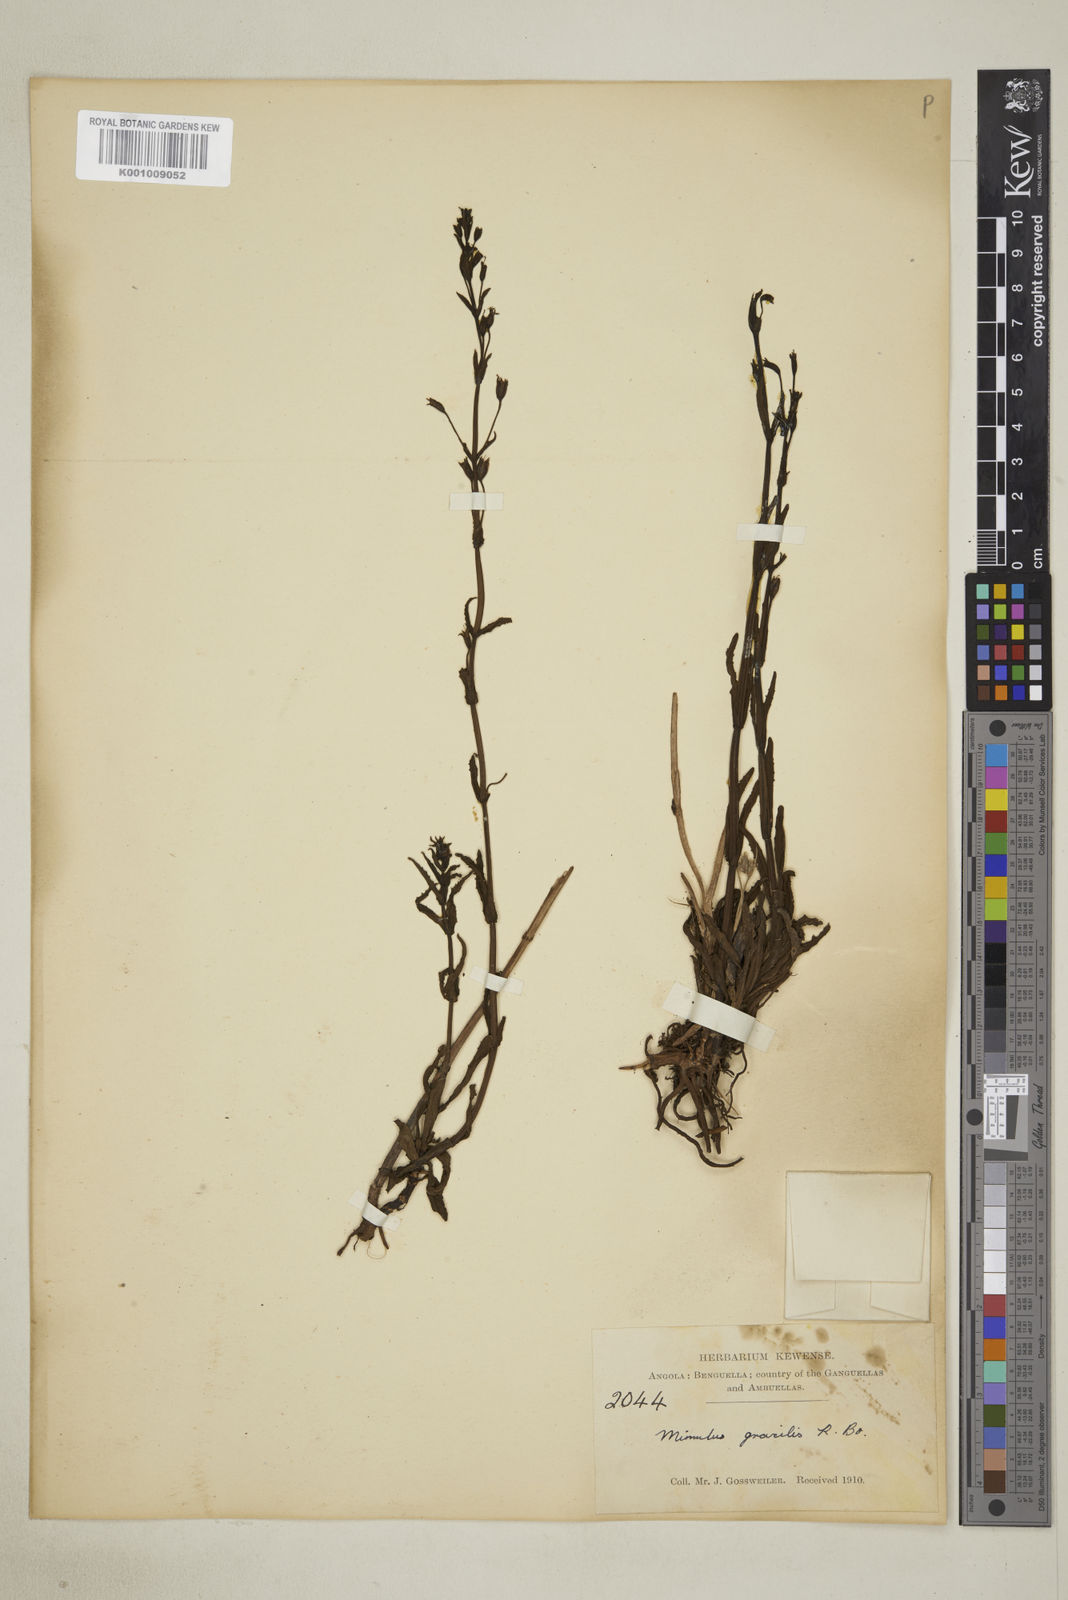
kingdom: Plantae
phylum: Tracheophyta
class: Magnoliopsida
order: Lamiales
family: Phrymaceae
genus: Mimulus
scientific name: Mimulus gracilis
